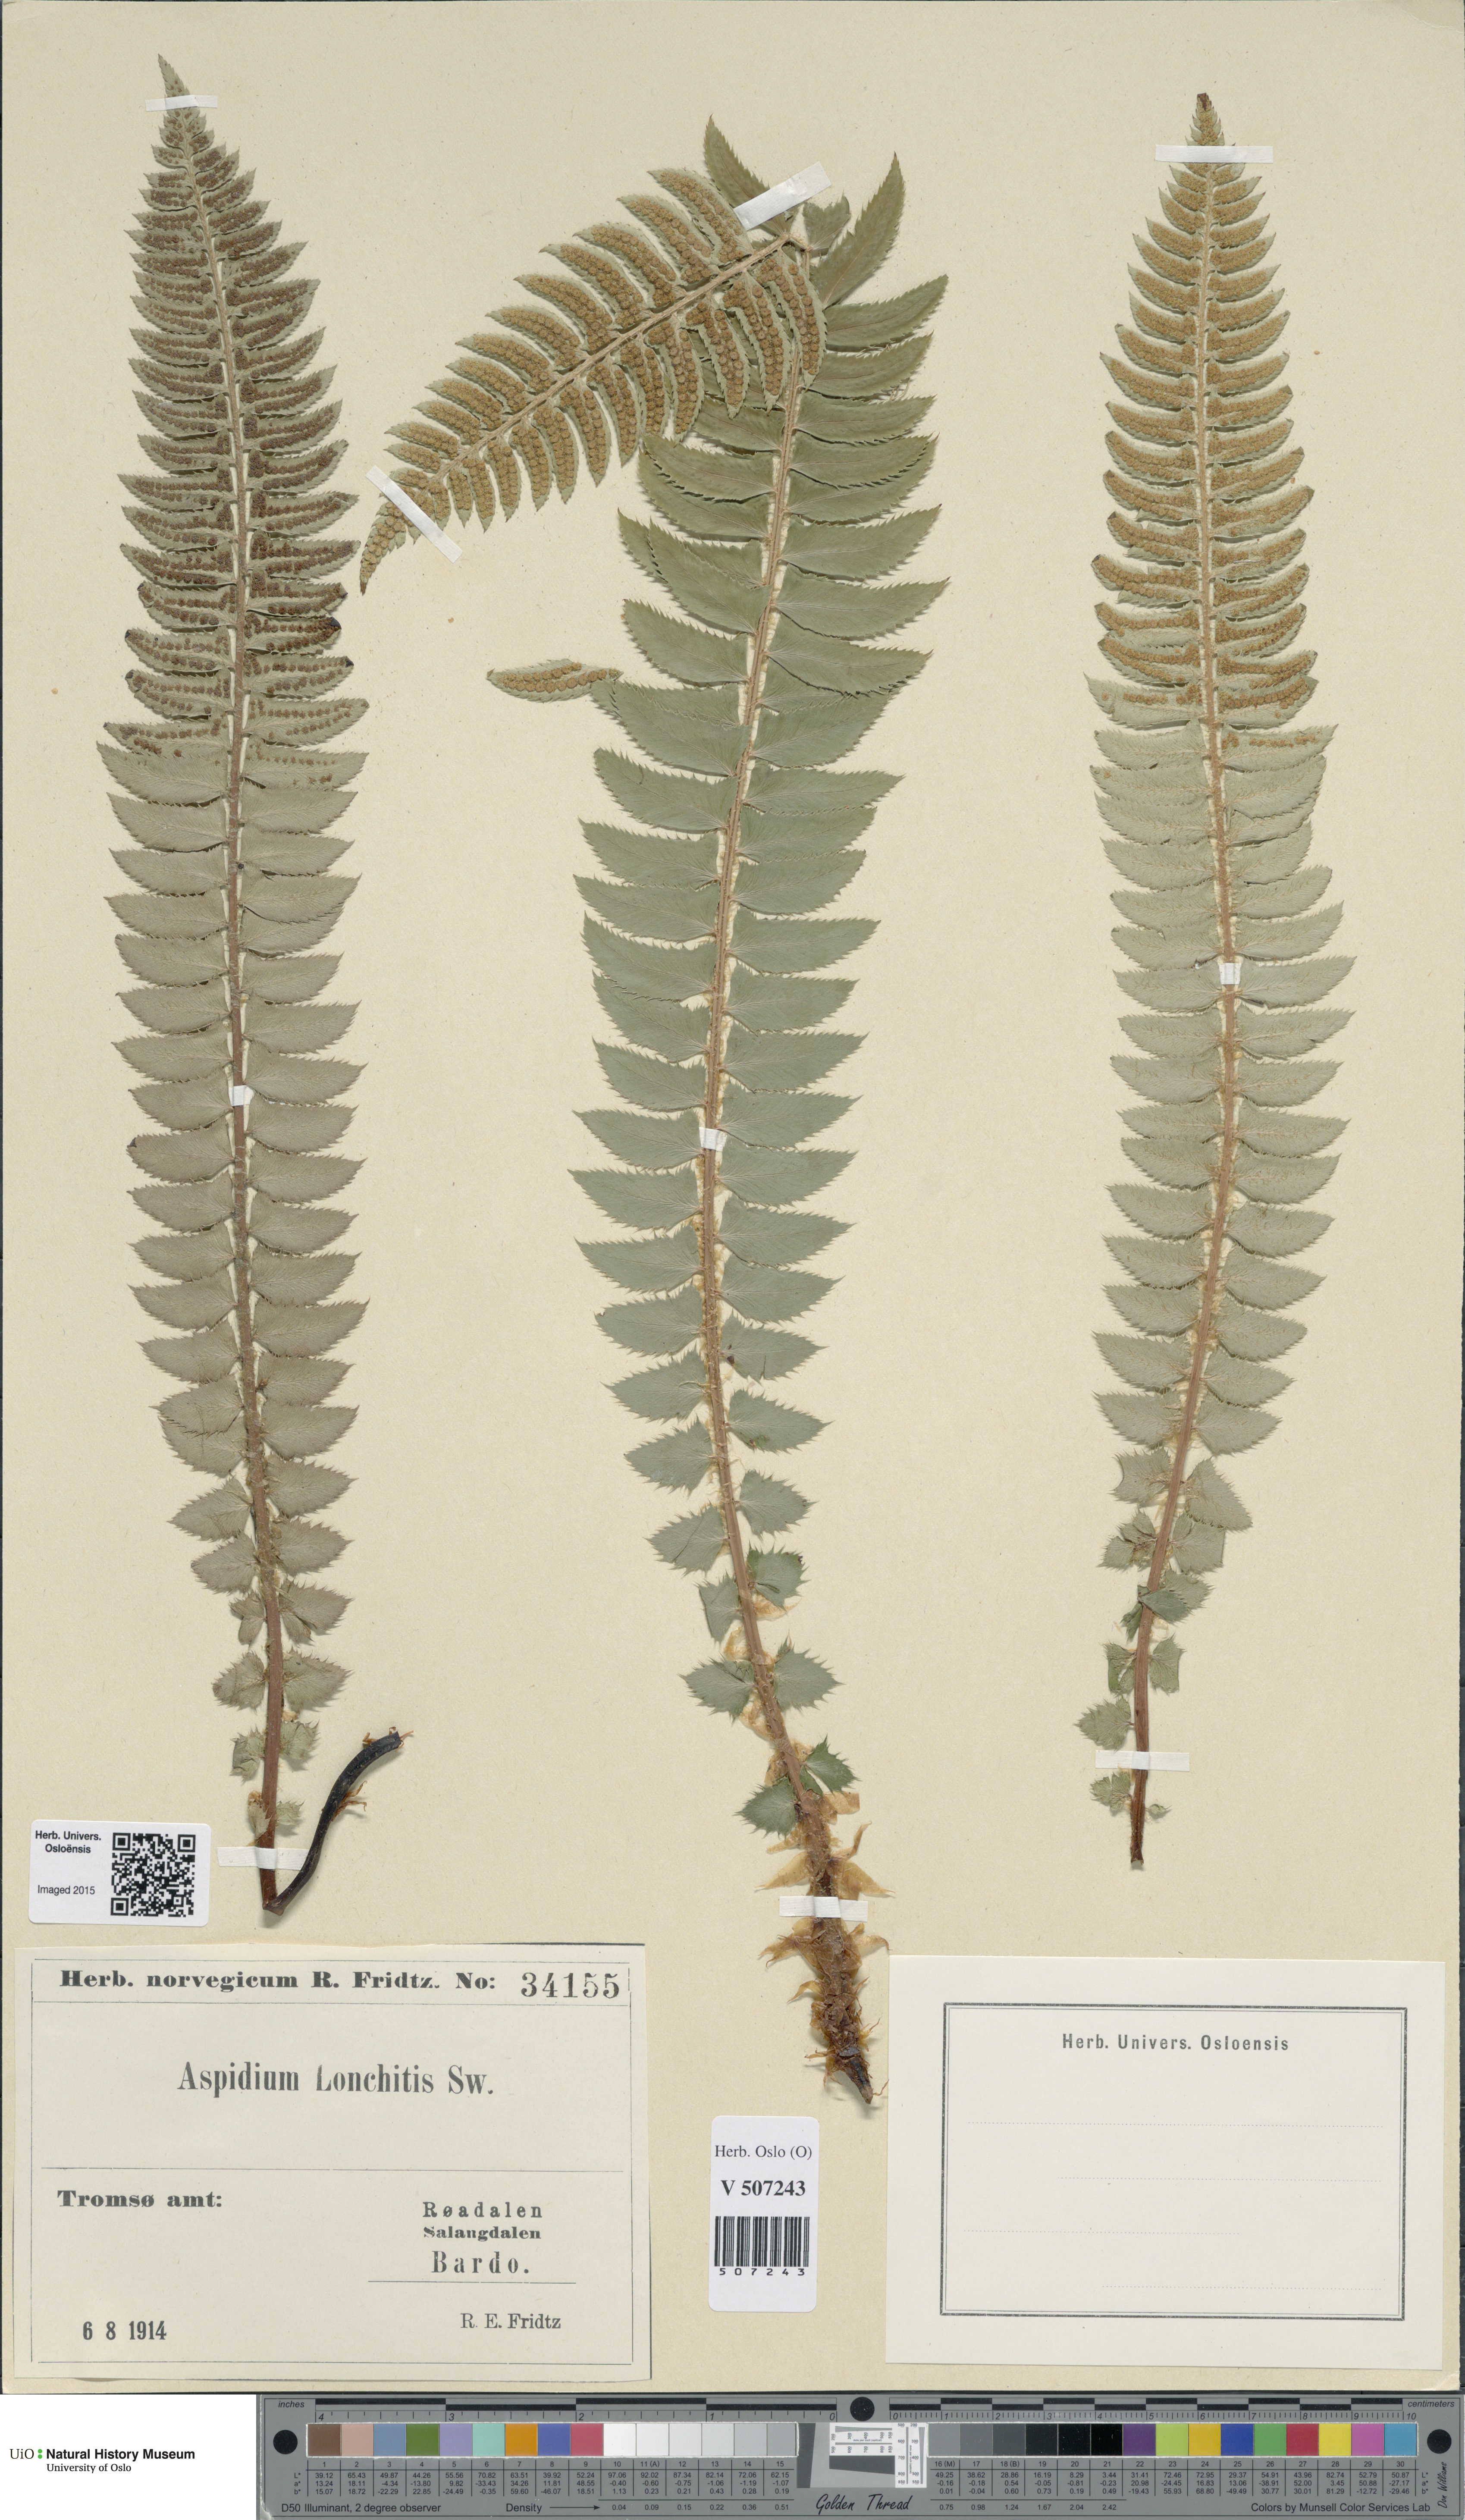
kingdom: Plantae
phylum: Tracheophyta
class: Polypodiopsida
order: Polypodiales
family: Dryopteridaceae
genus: Polystichum
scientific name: Polystichum lonchitis
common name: Holly fern
